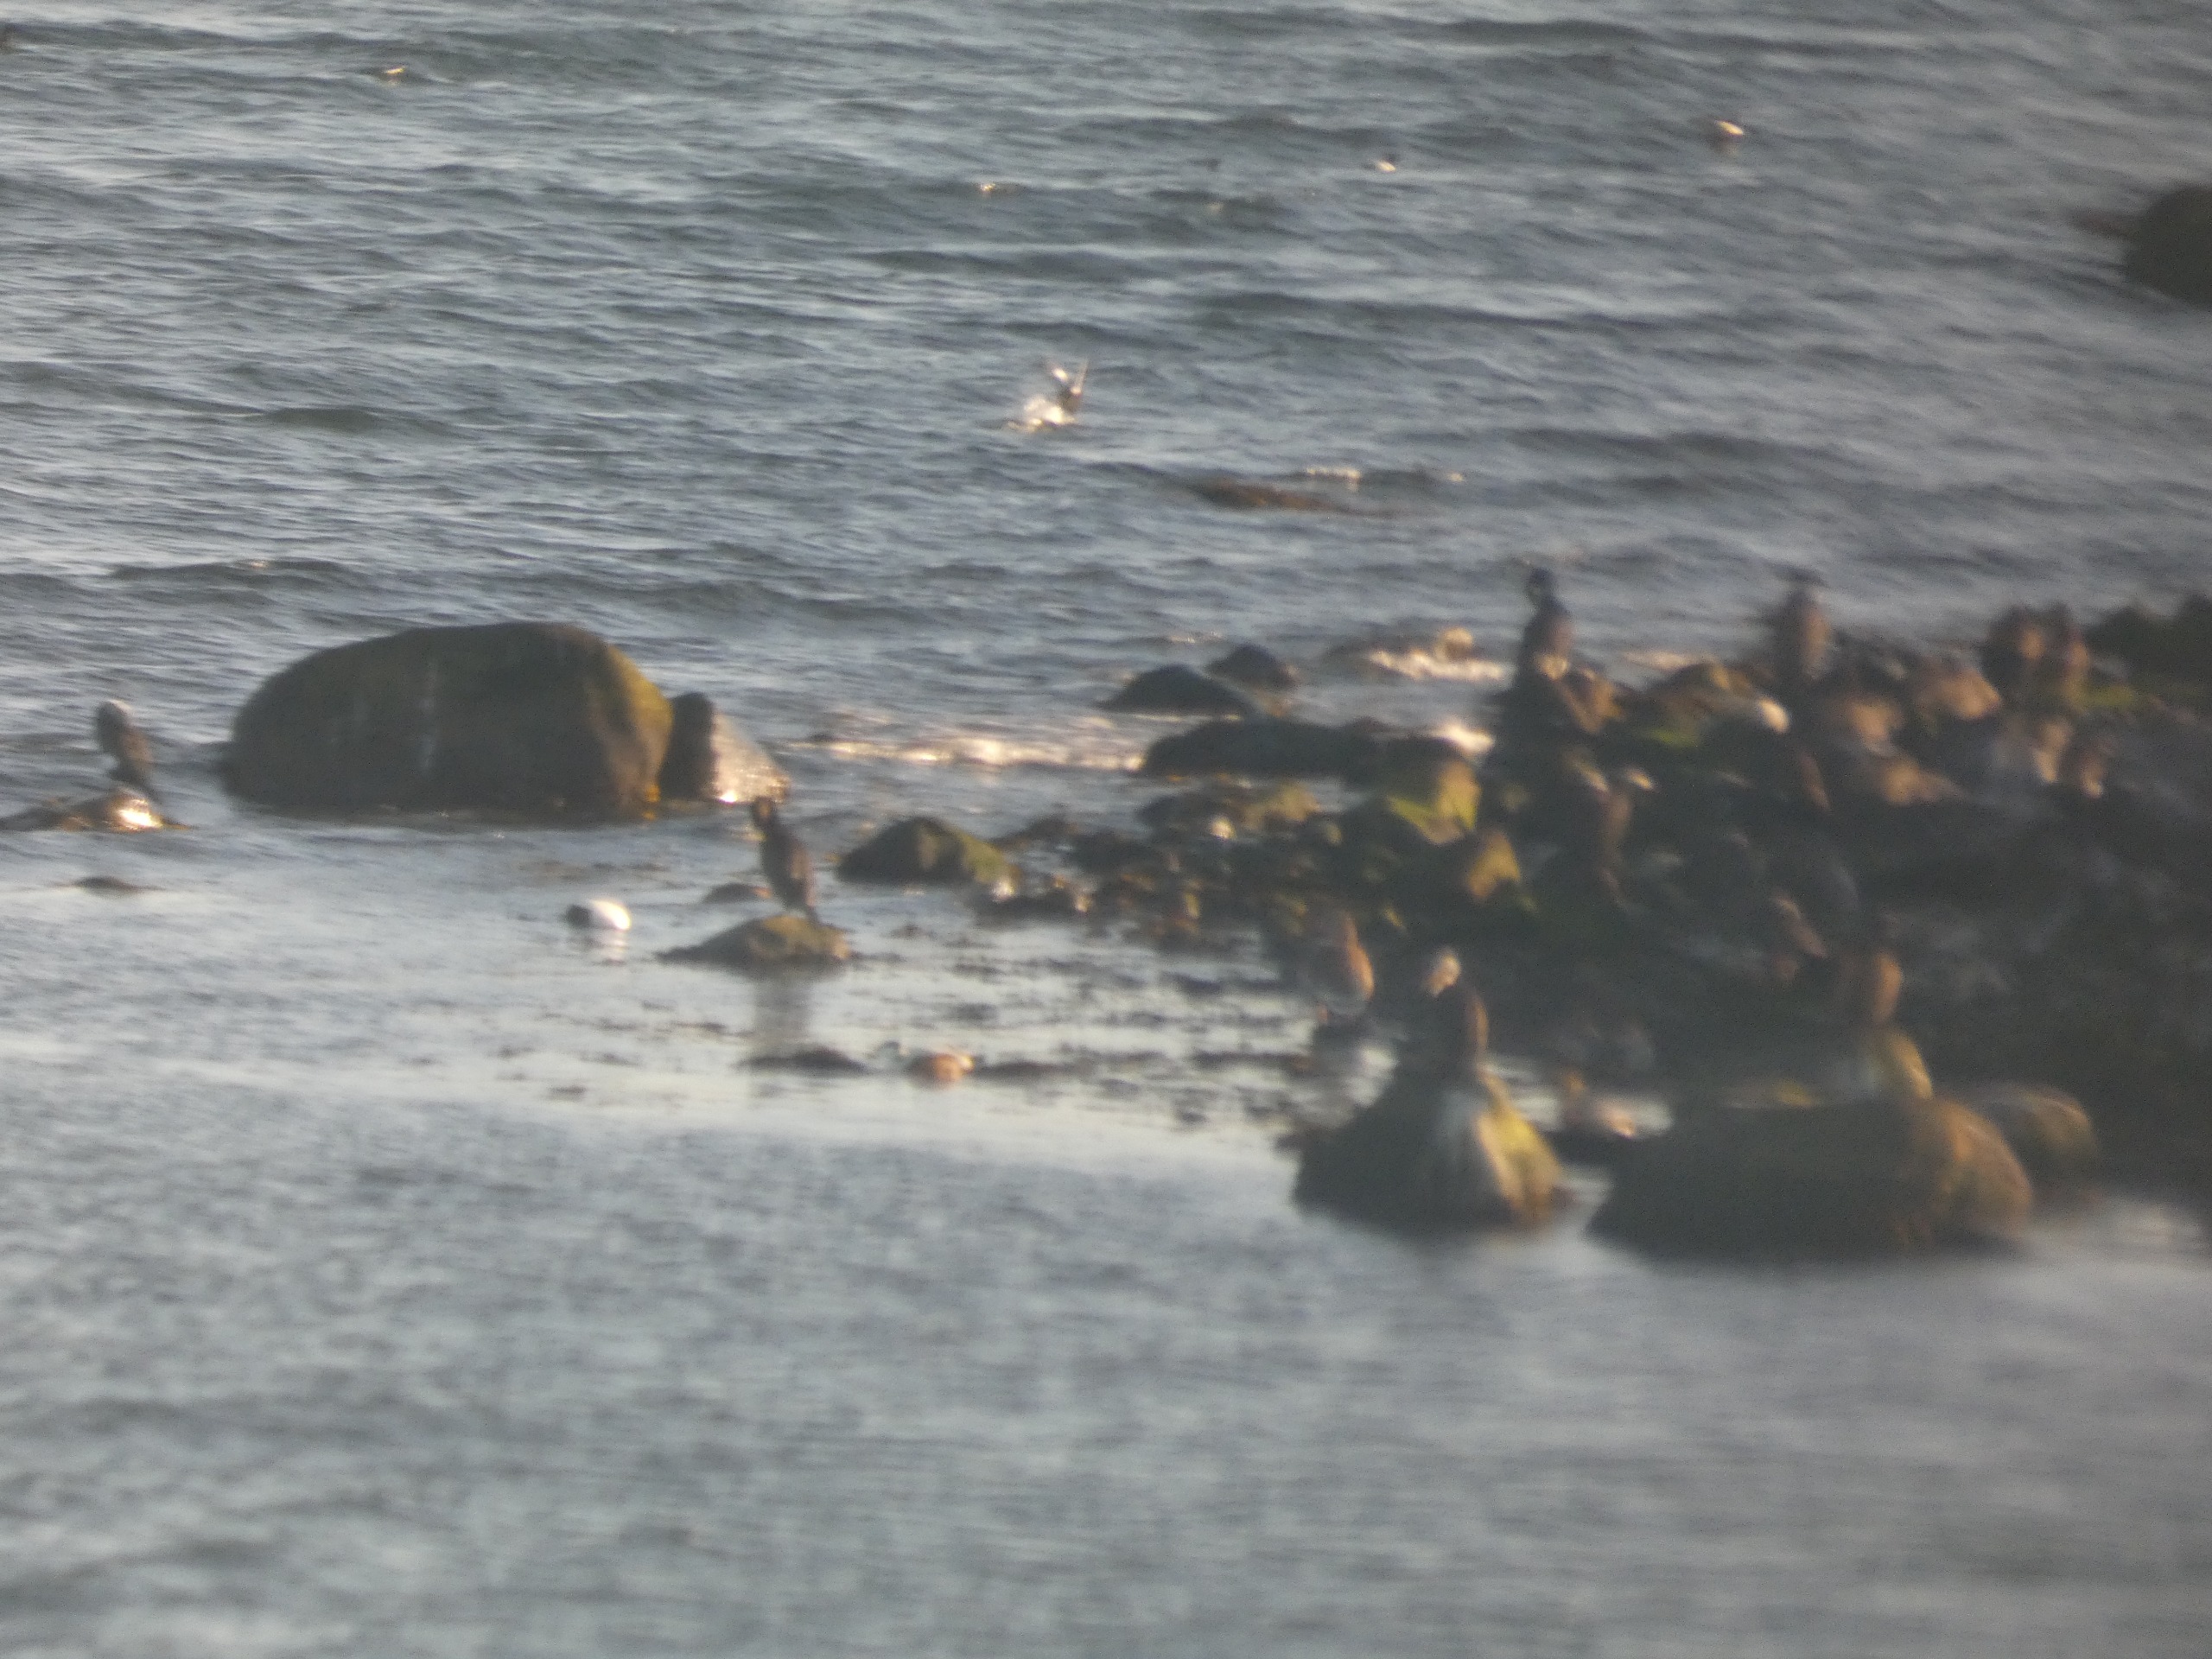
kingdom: Animalia
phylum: Chordata
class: Aves
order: Suliformes
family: Phalacrocoracidae
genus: Phalacrocorax
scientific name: Phalacrocorax carbo
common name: Skarv
